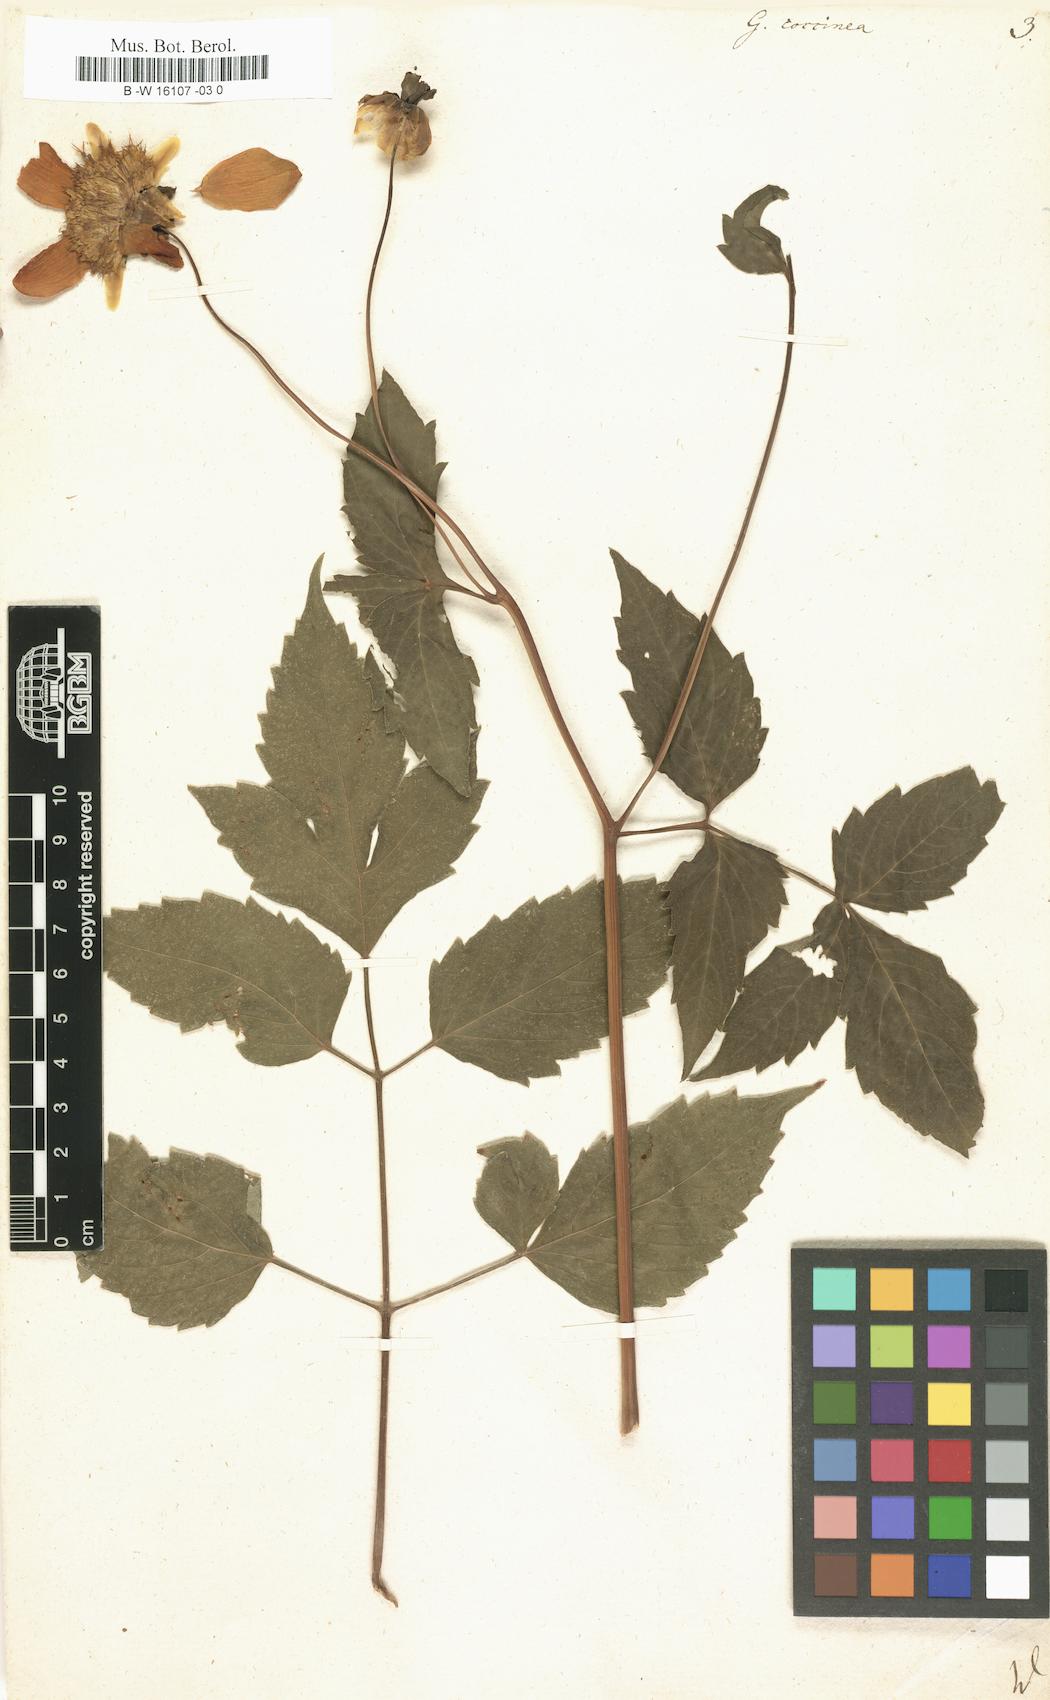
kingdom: Plantae
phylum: Tracheophyta
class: Magnoliopsida
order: Asterales
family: Asteraceae
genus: Dahlia
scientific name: Dahlia Georgina coccinea
